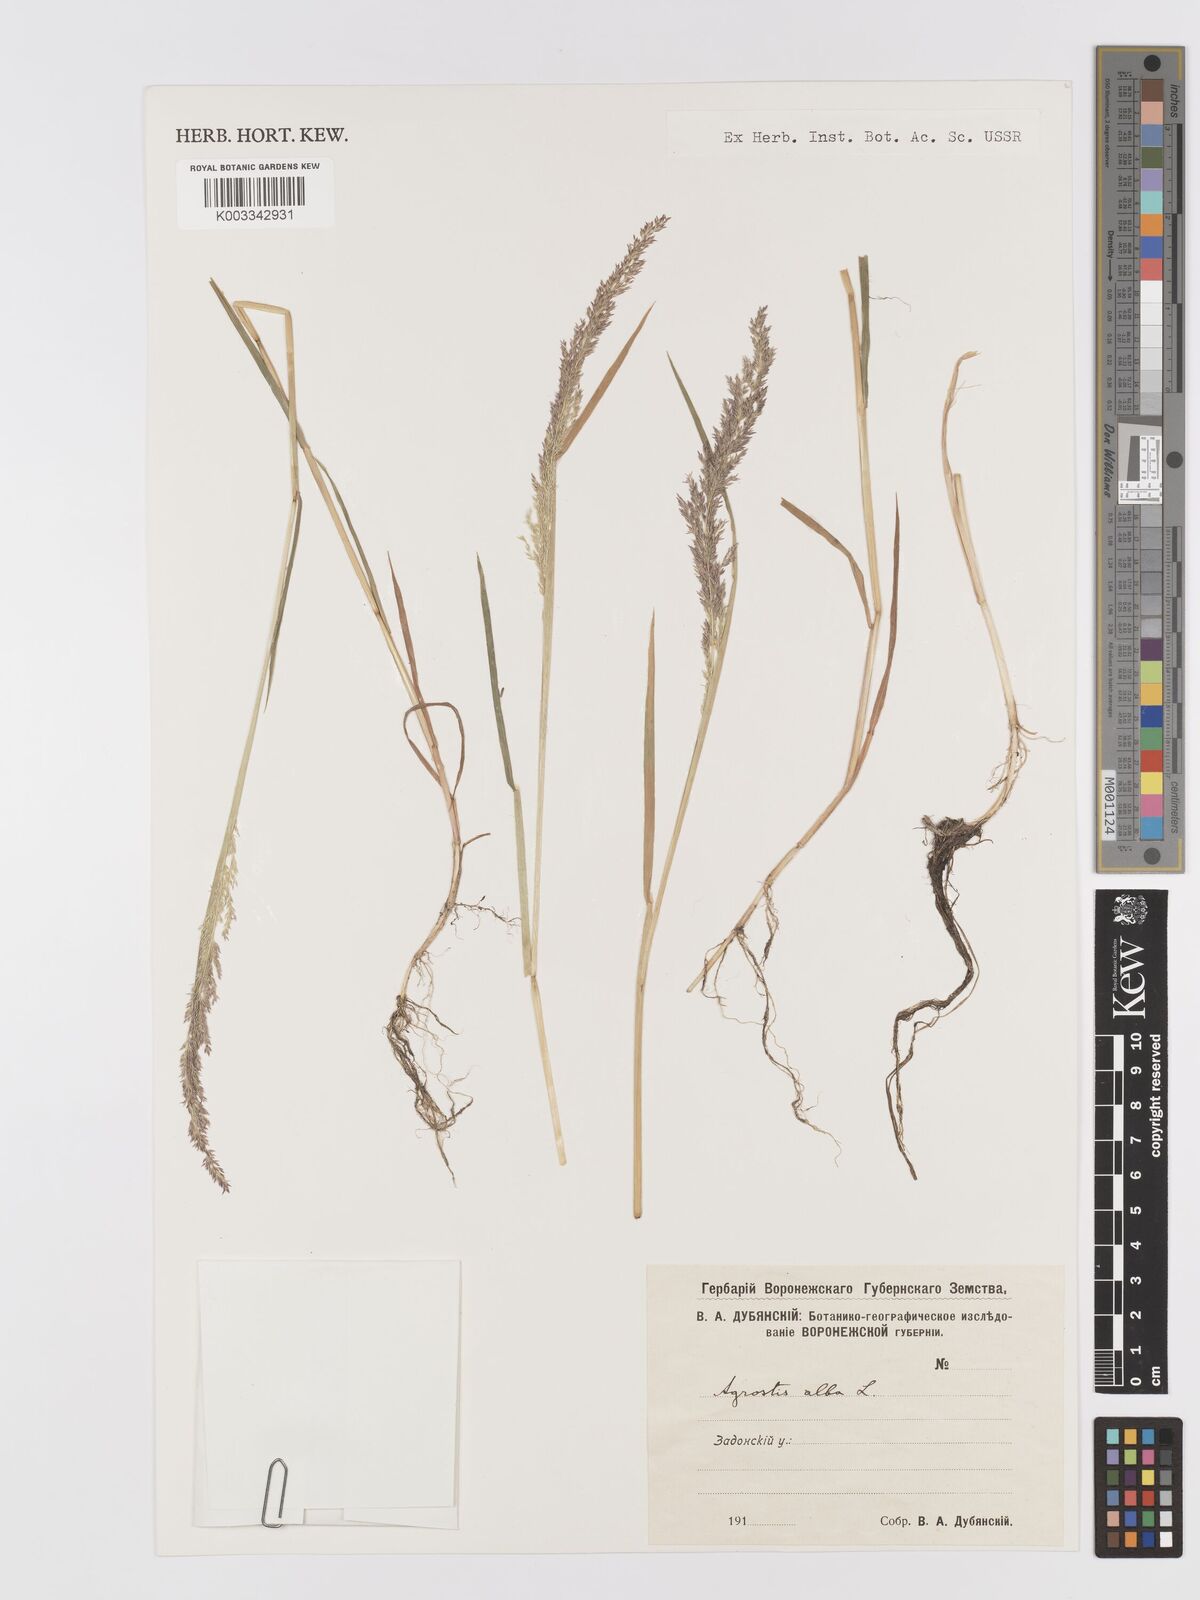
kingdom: Plantae
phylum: Tracheophyta
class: Liliopsida
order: Poales
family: Poaceae
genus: Agrostis
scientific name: Agrostis gigantea
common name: Black bent
